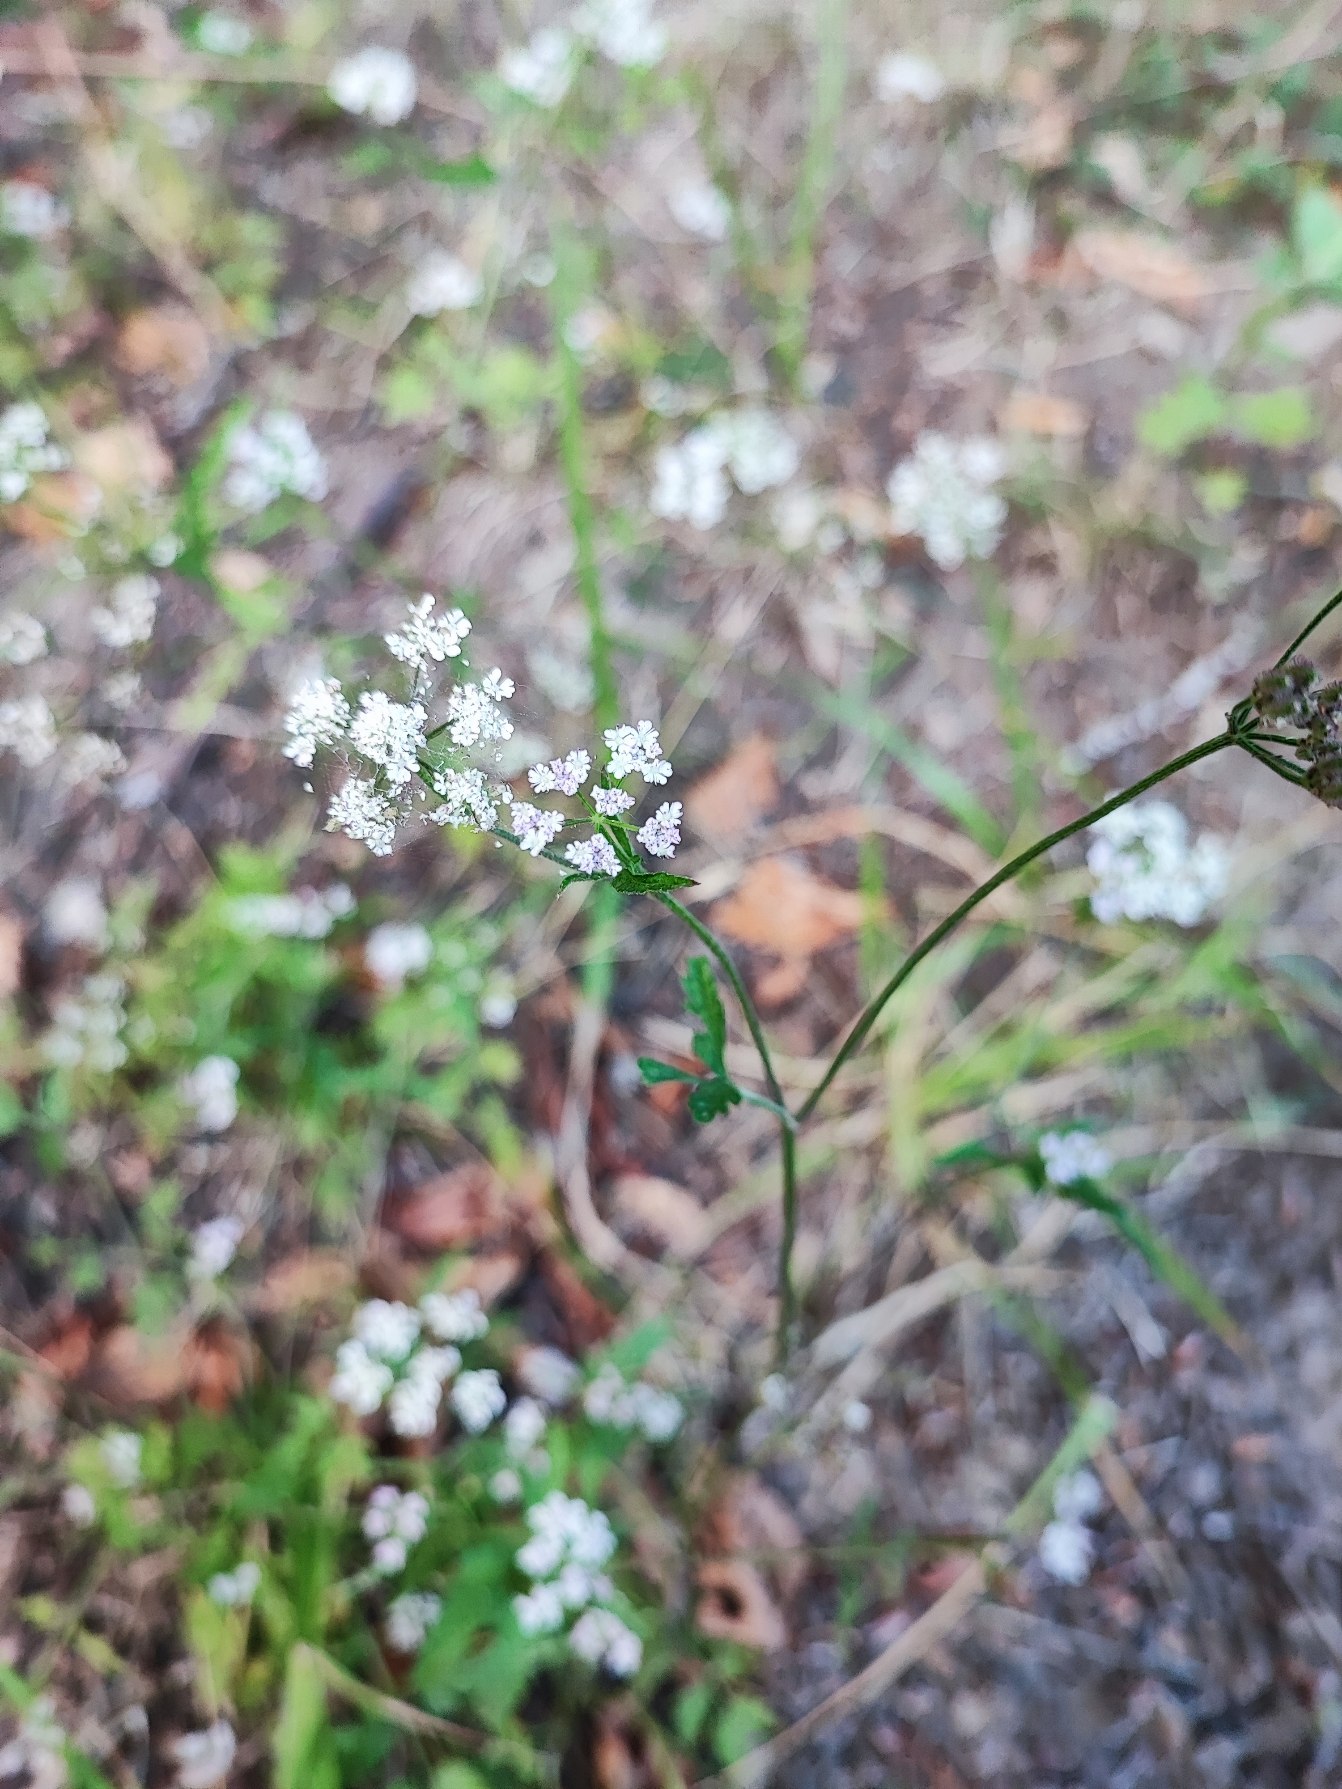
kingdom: Plantae
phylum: Tracheophyta
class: Magnoliopsida
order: Apiales
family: Apiaceae
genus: Torilis
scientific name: Torilis japonica
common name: Hvas randfrø
